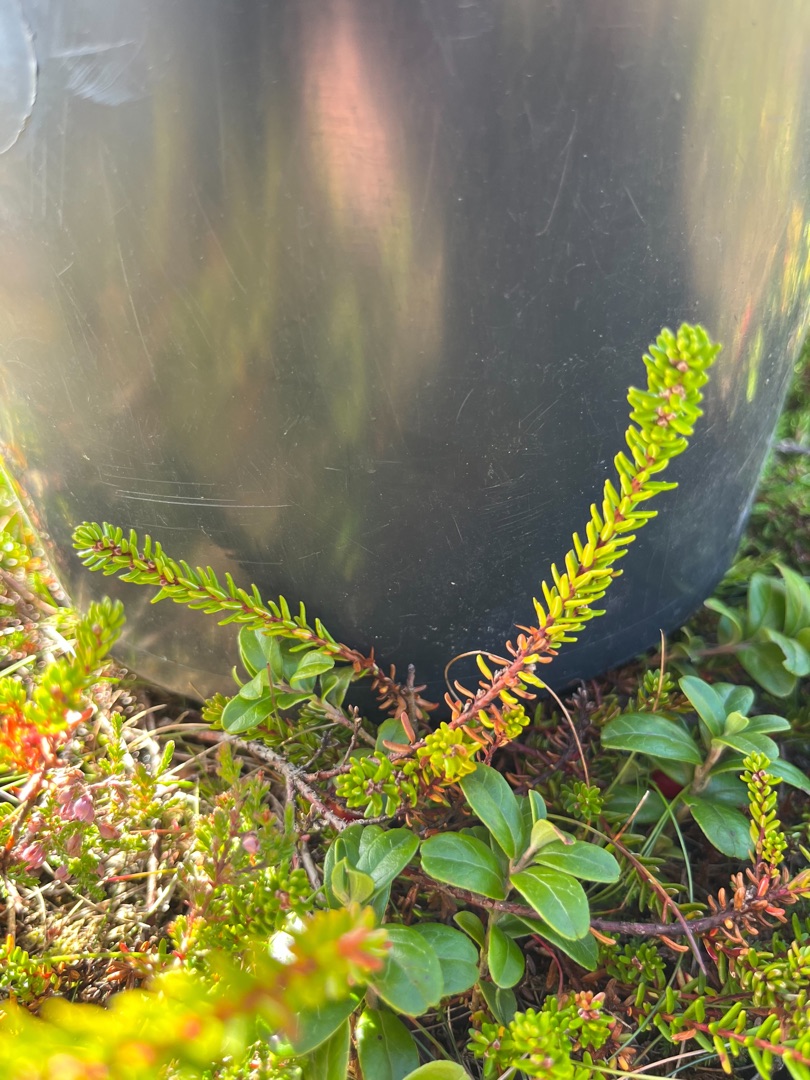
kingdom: Plantae
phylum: Tracheophyta
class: Magnoliopsida
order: Ericales
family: Ericaceae
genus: Empetrum
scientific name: Empetrum nigrum
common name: Revling
